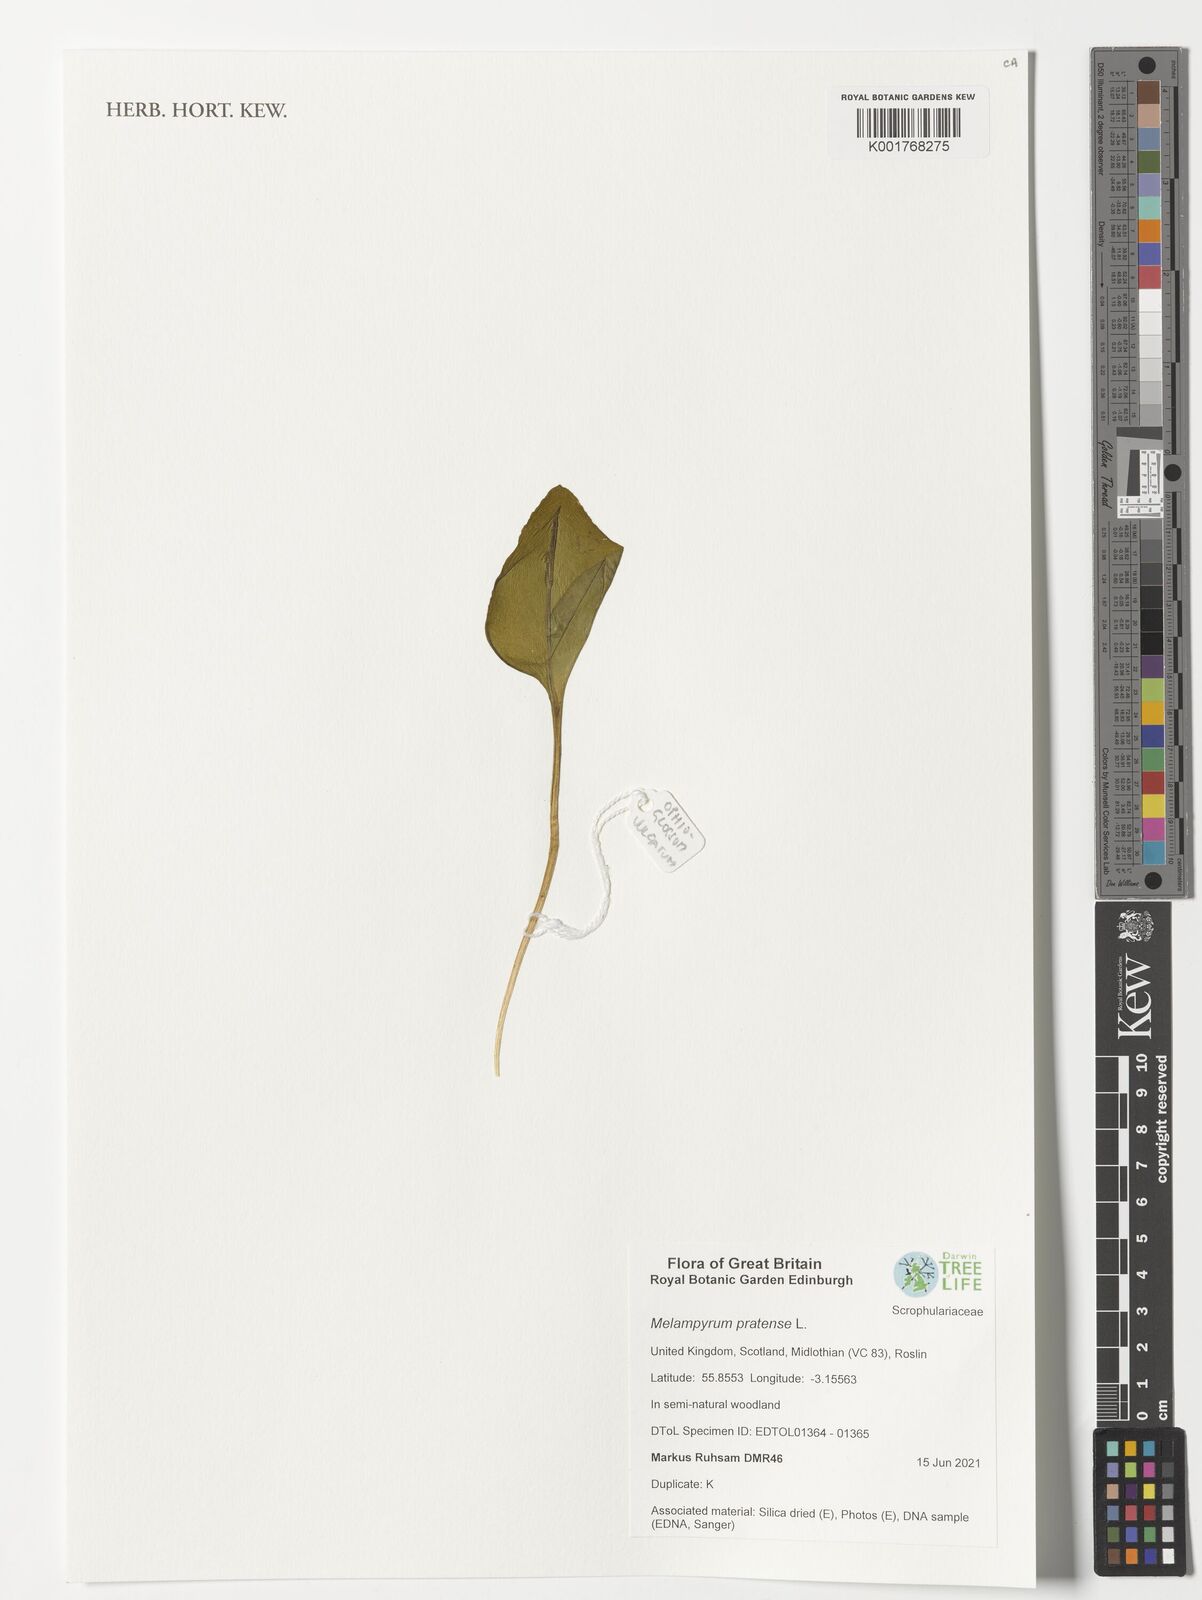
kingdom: Plantae
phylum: Tracheophyta
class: Magnoliopsida
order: Lamiales
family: Orobanchaceae
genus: Melampyrum
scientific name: Melampyrum pratense
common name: Common cow-wheat
